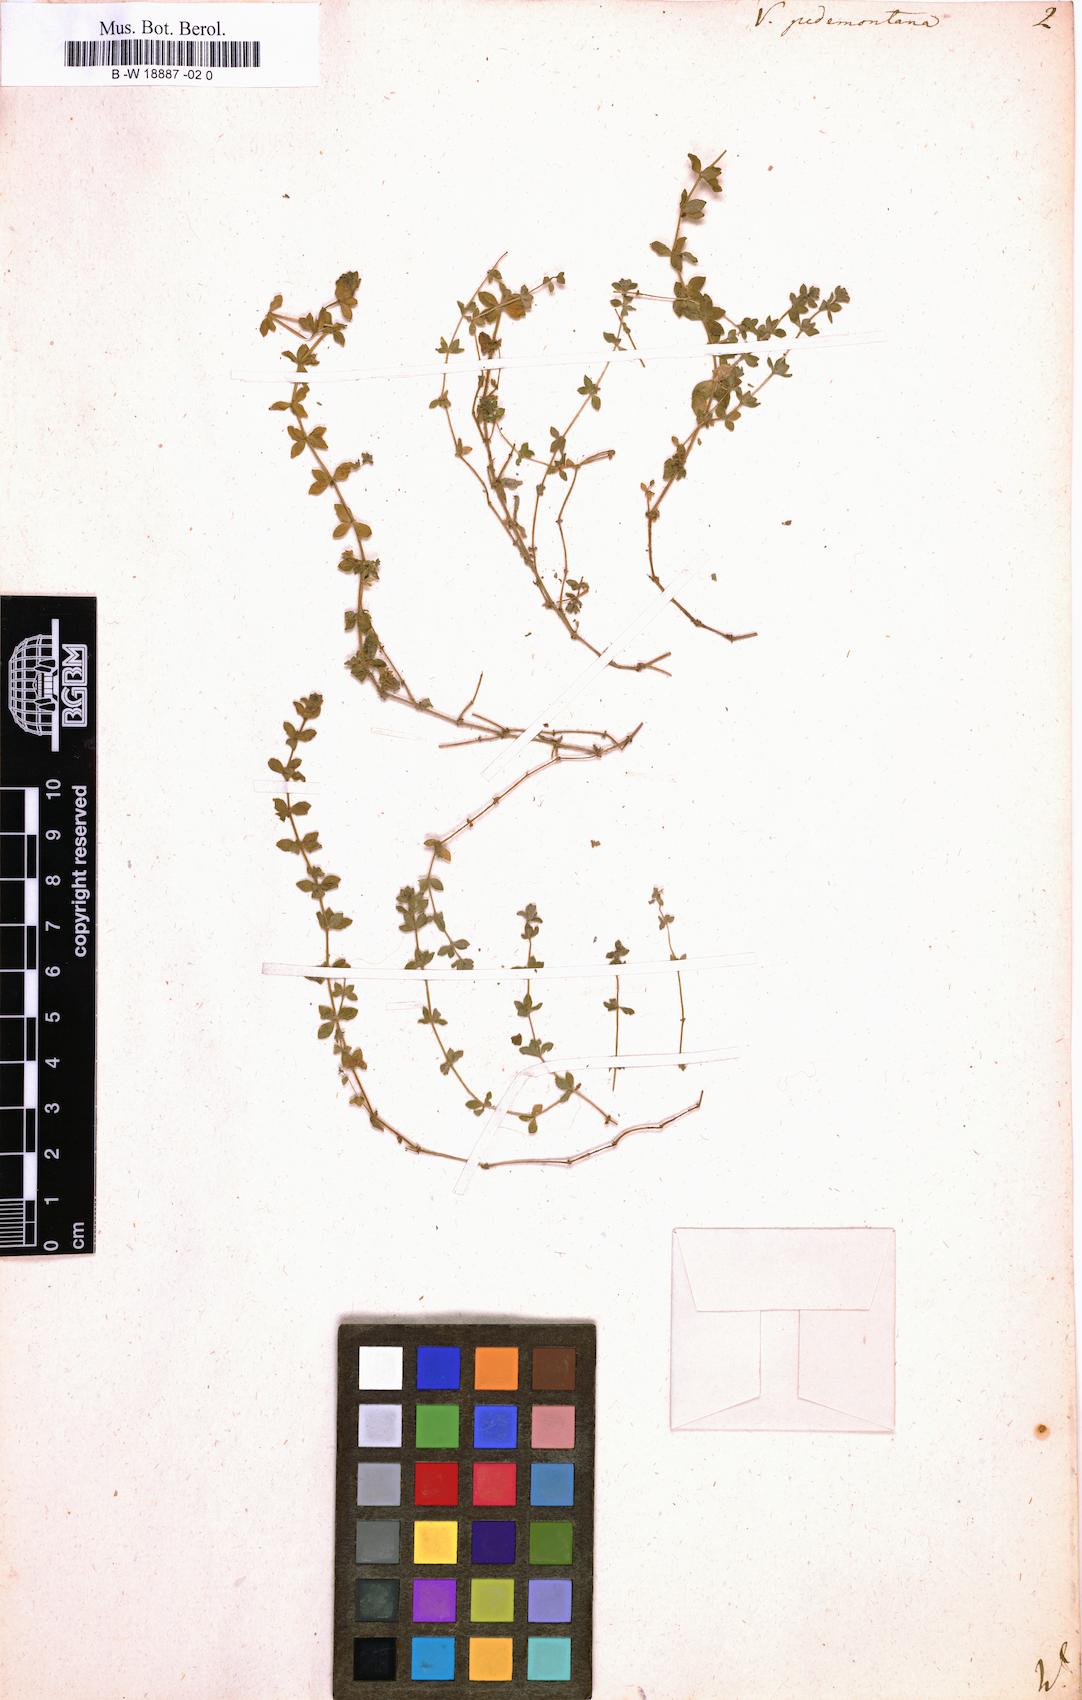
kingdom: Plantae
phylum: Tracheophyta
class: Magnoliopsida
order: Gentianales
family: Rubiaceae
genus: Cruciata
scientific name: Cruciata pedemontana
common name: Piedmont bedstraw
